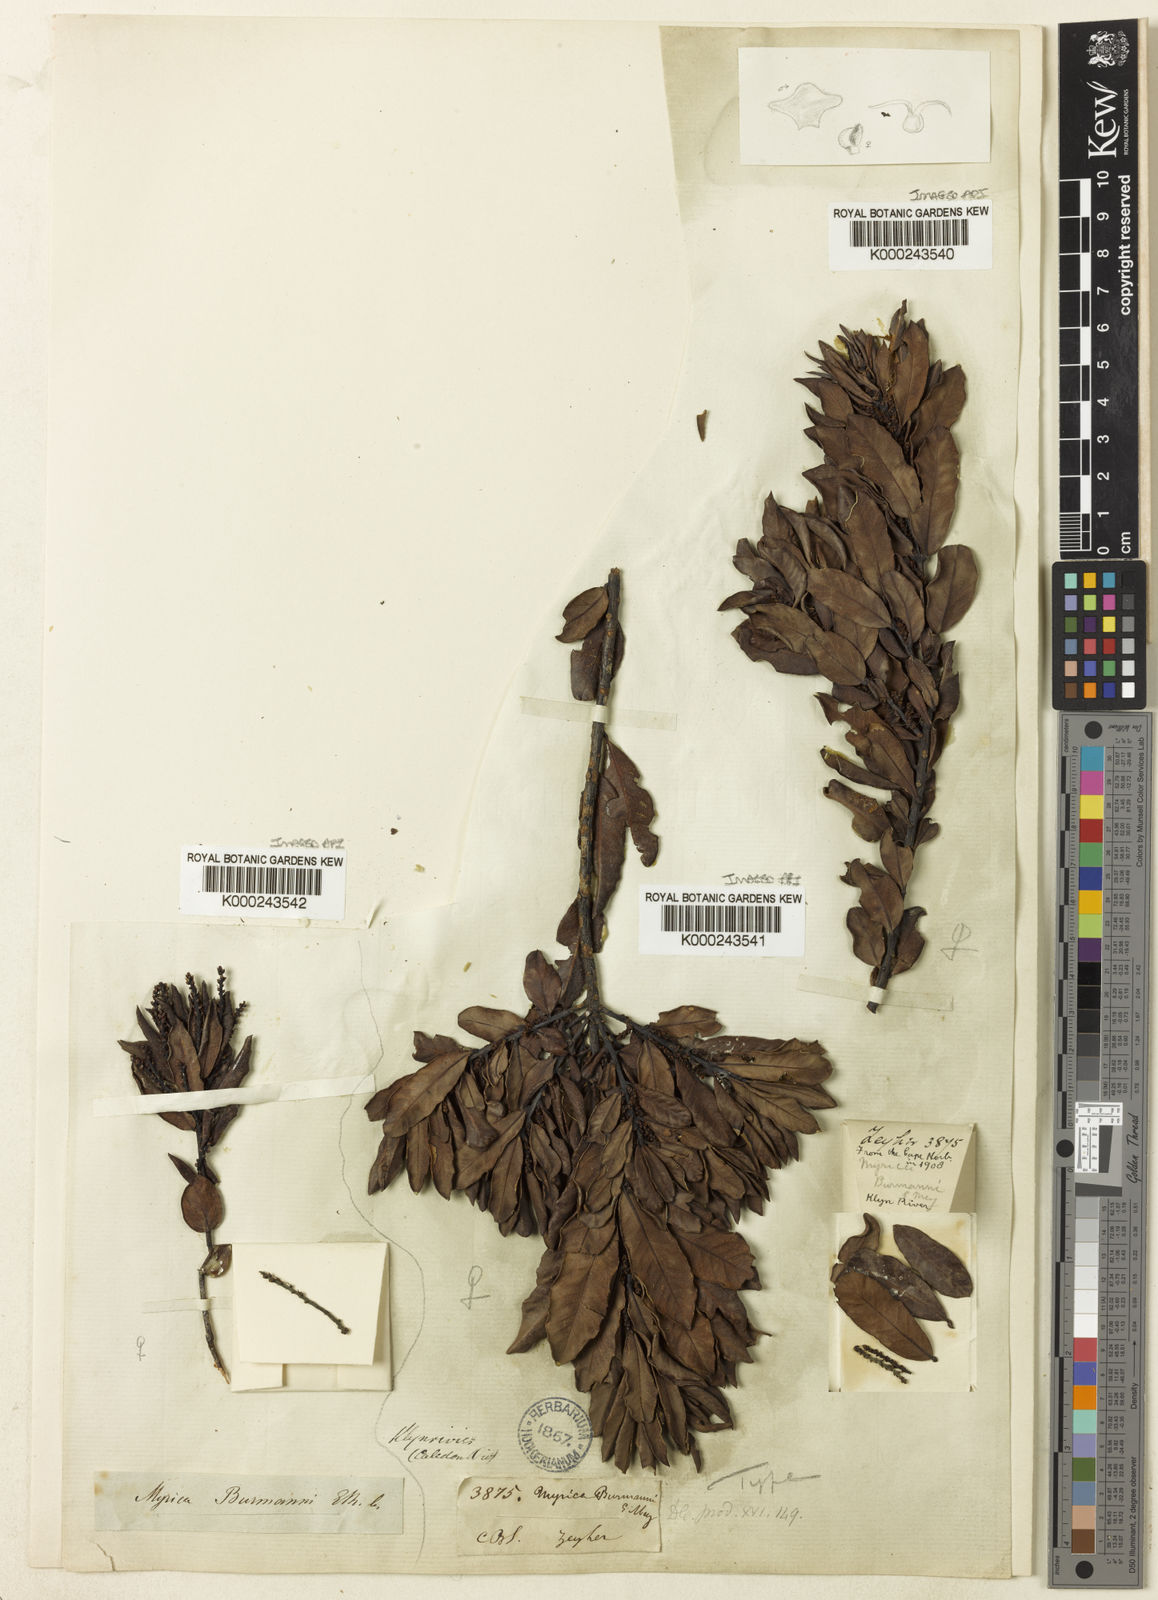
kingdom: Plantae
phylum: Tracheophyta
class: Magnoliopsida
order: Fagales
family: Myricaceae
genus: Myrica
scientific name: Myrica
